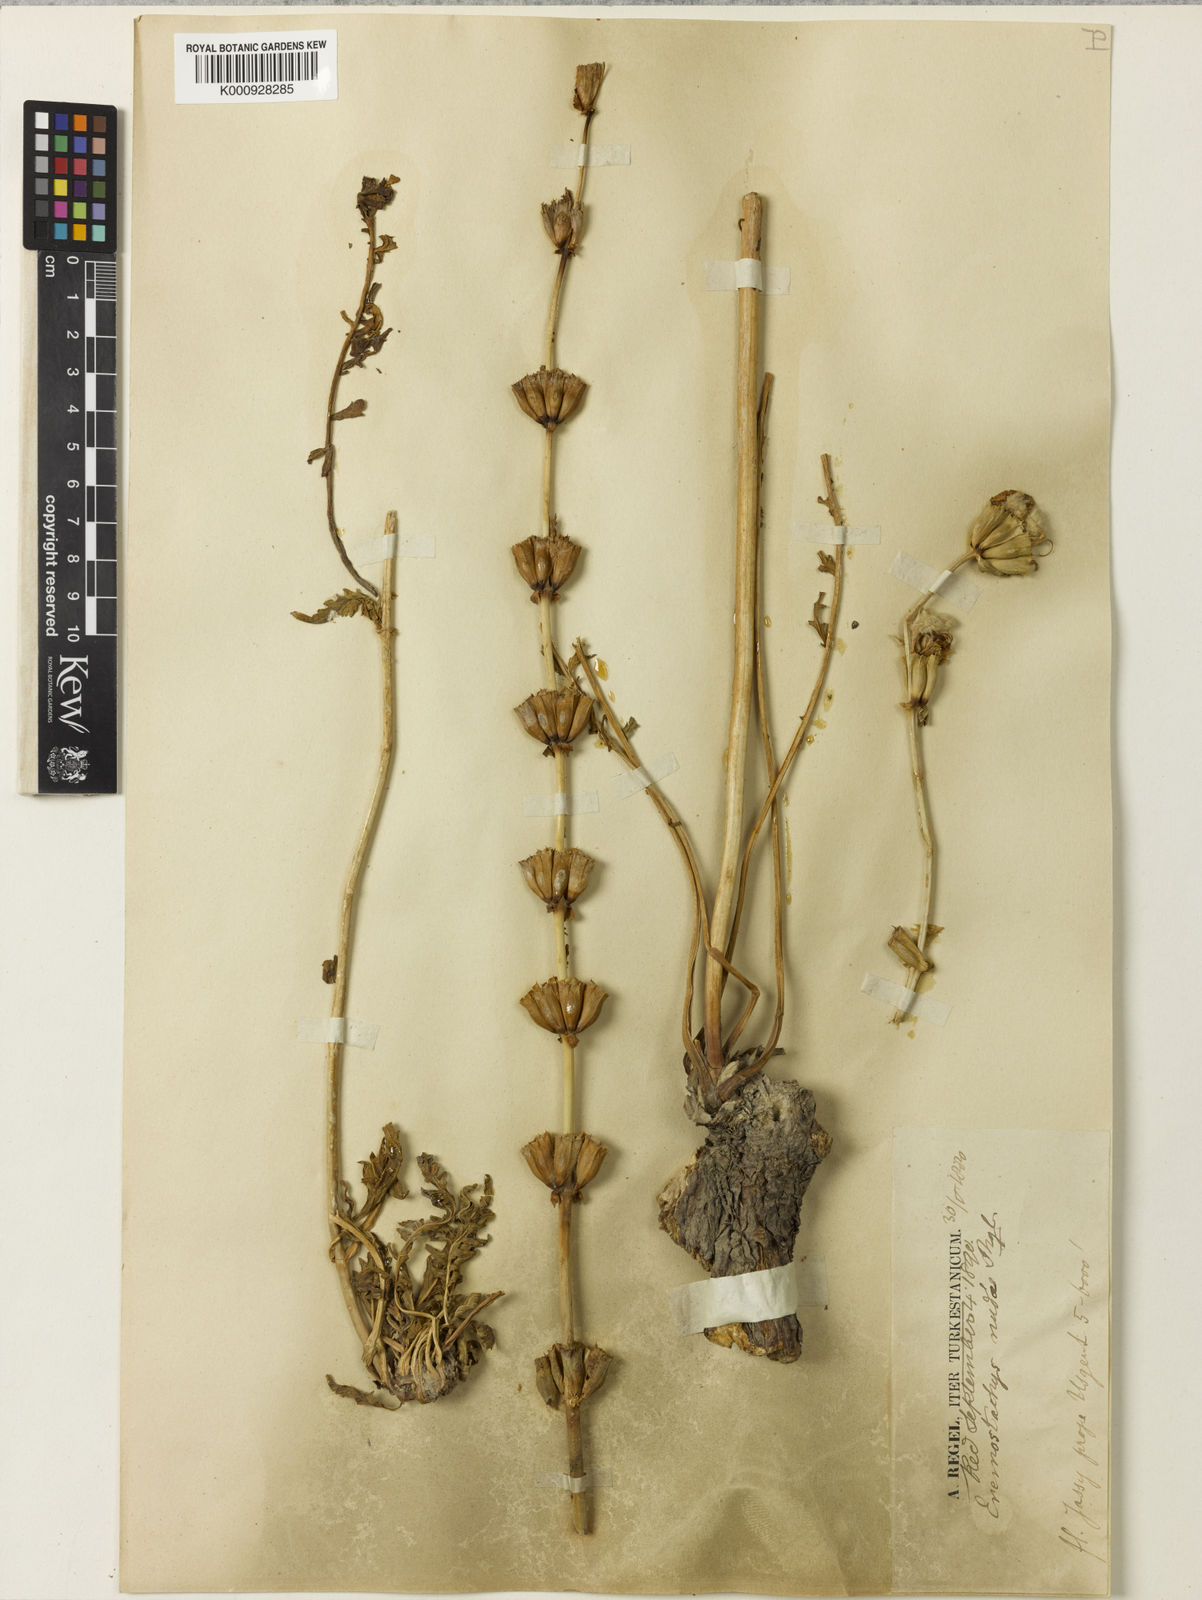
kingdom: Plantae
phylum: Tracheophyta
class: Magnoliopsida
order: Lamiales
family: Lamiaceae
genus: Phlomoides
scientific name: Phlomoides nuda
